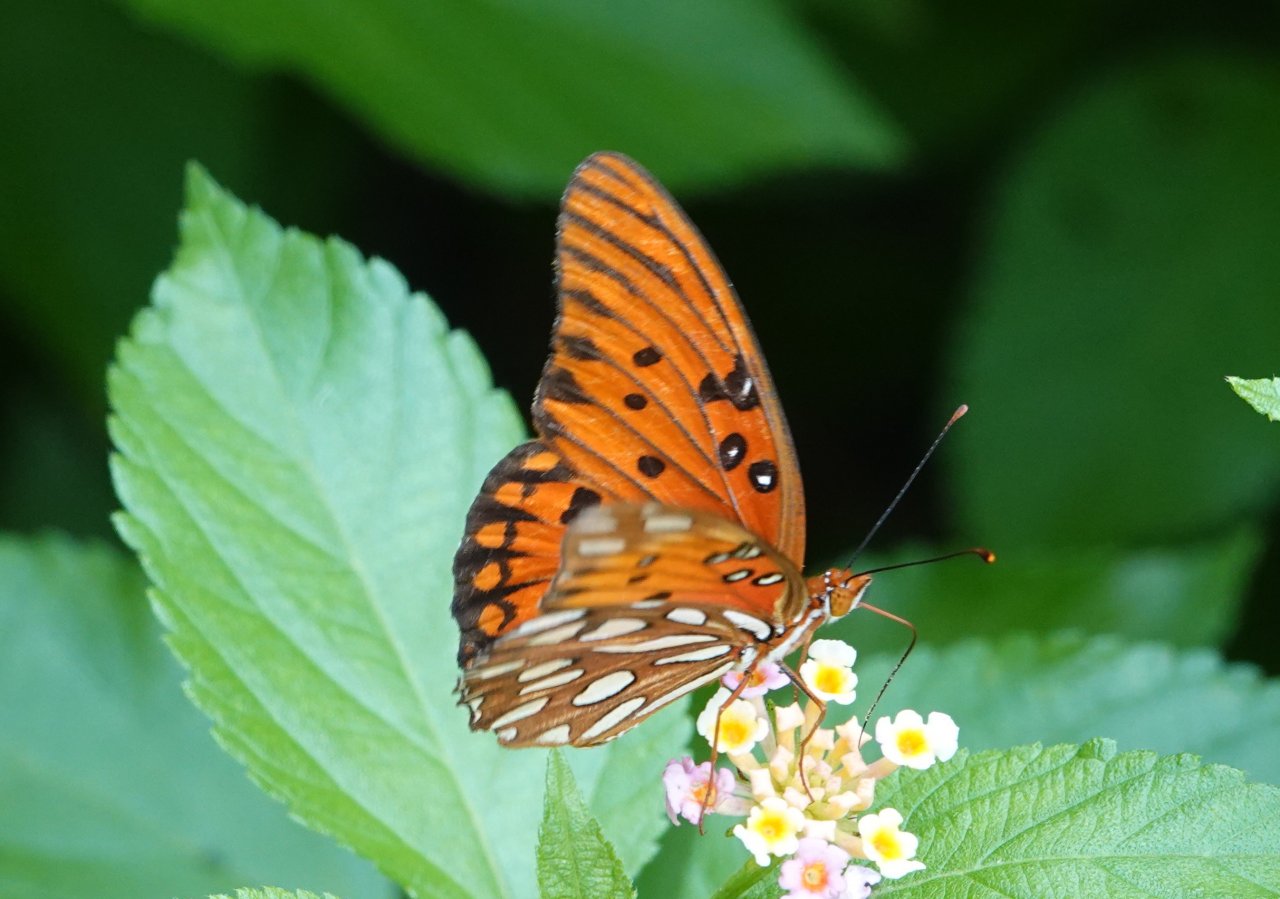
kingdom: Animalia
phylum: Arthropoda
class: Insecta
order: Lepidoptera
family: Nymphalidae
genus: Dione
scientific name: Dione vanillae
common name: Gulf Fritillary
